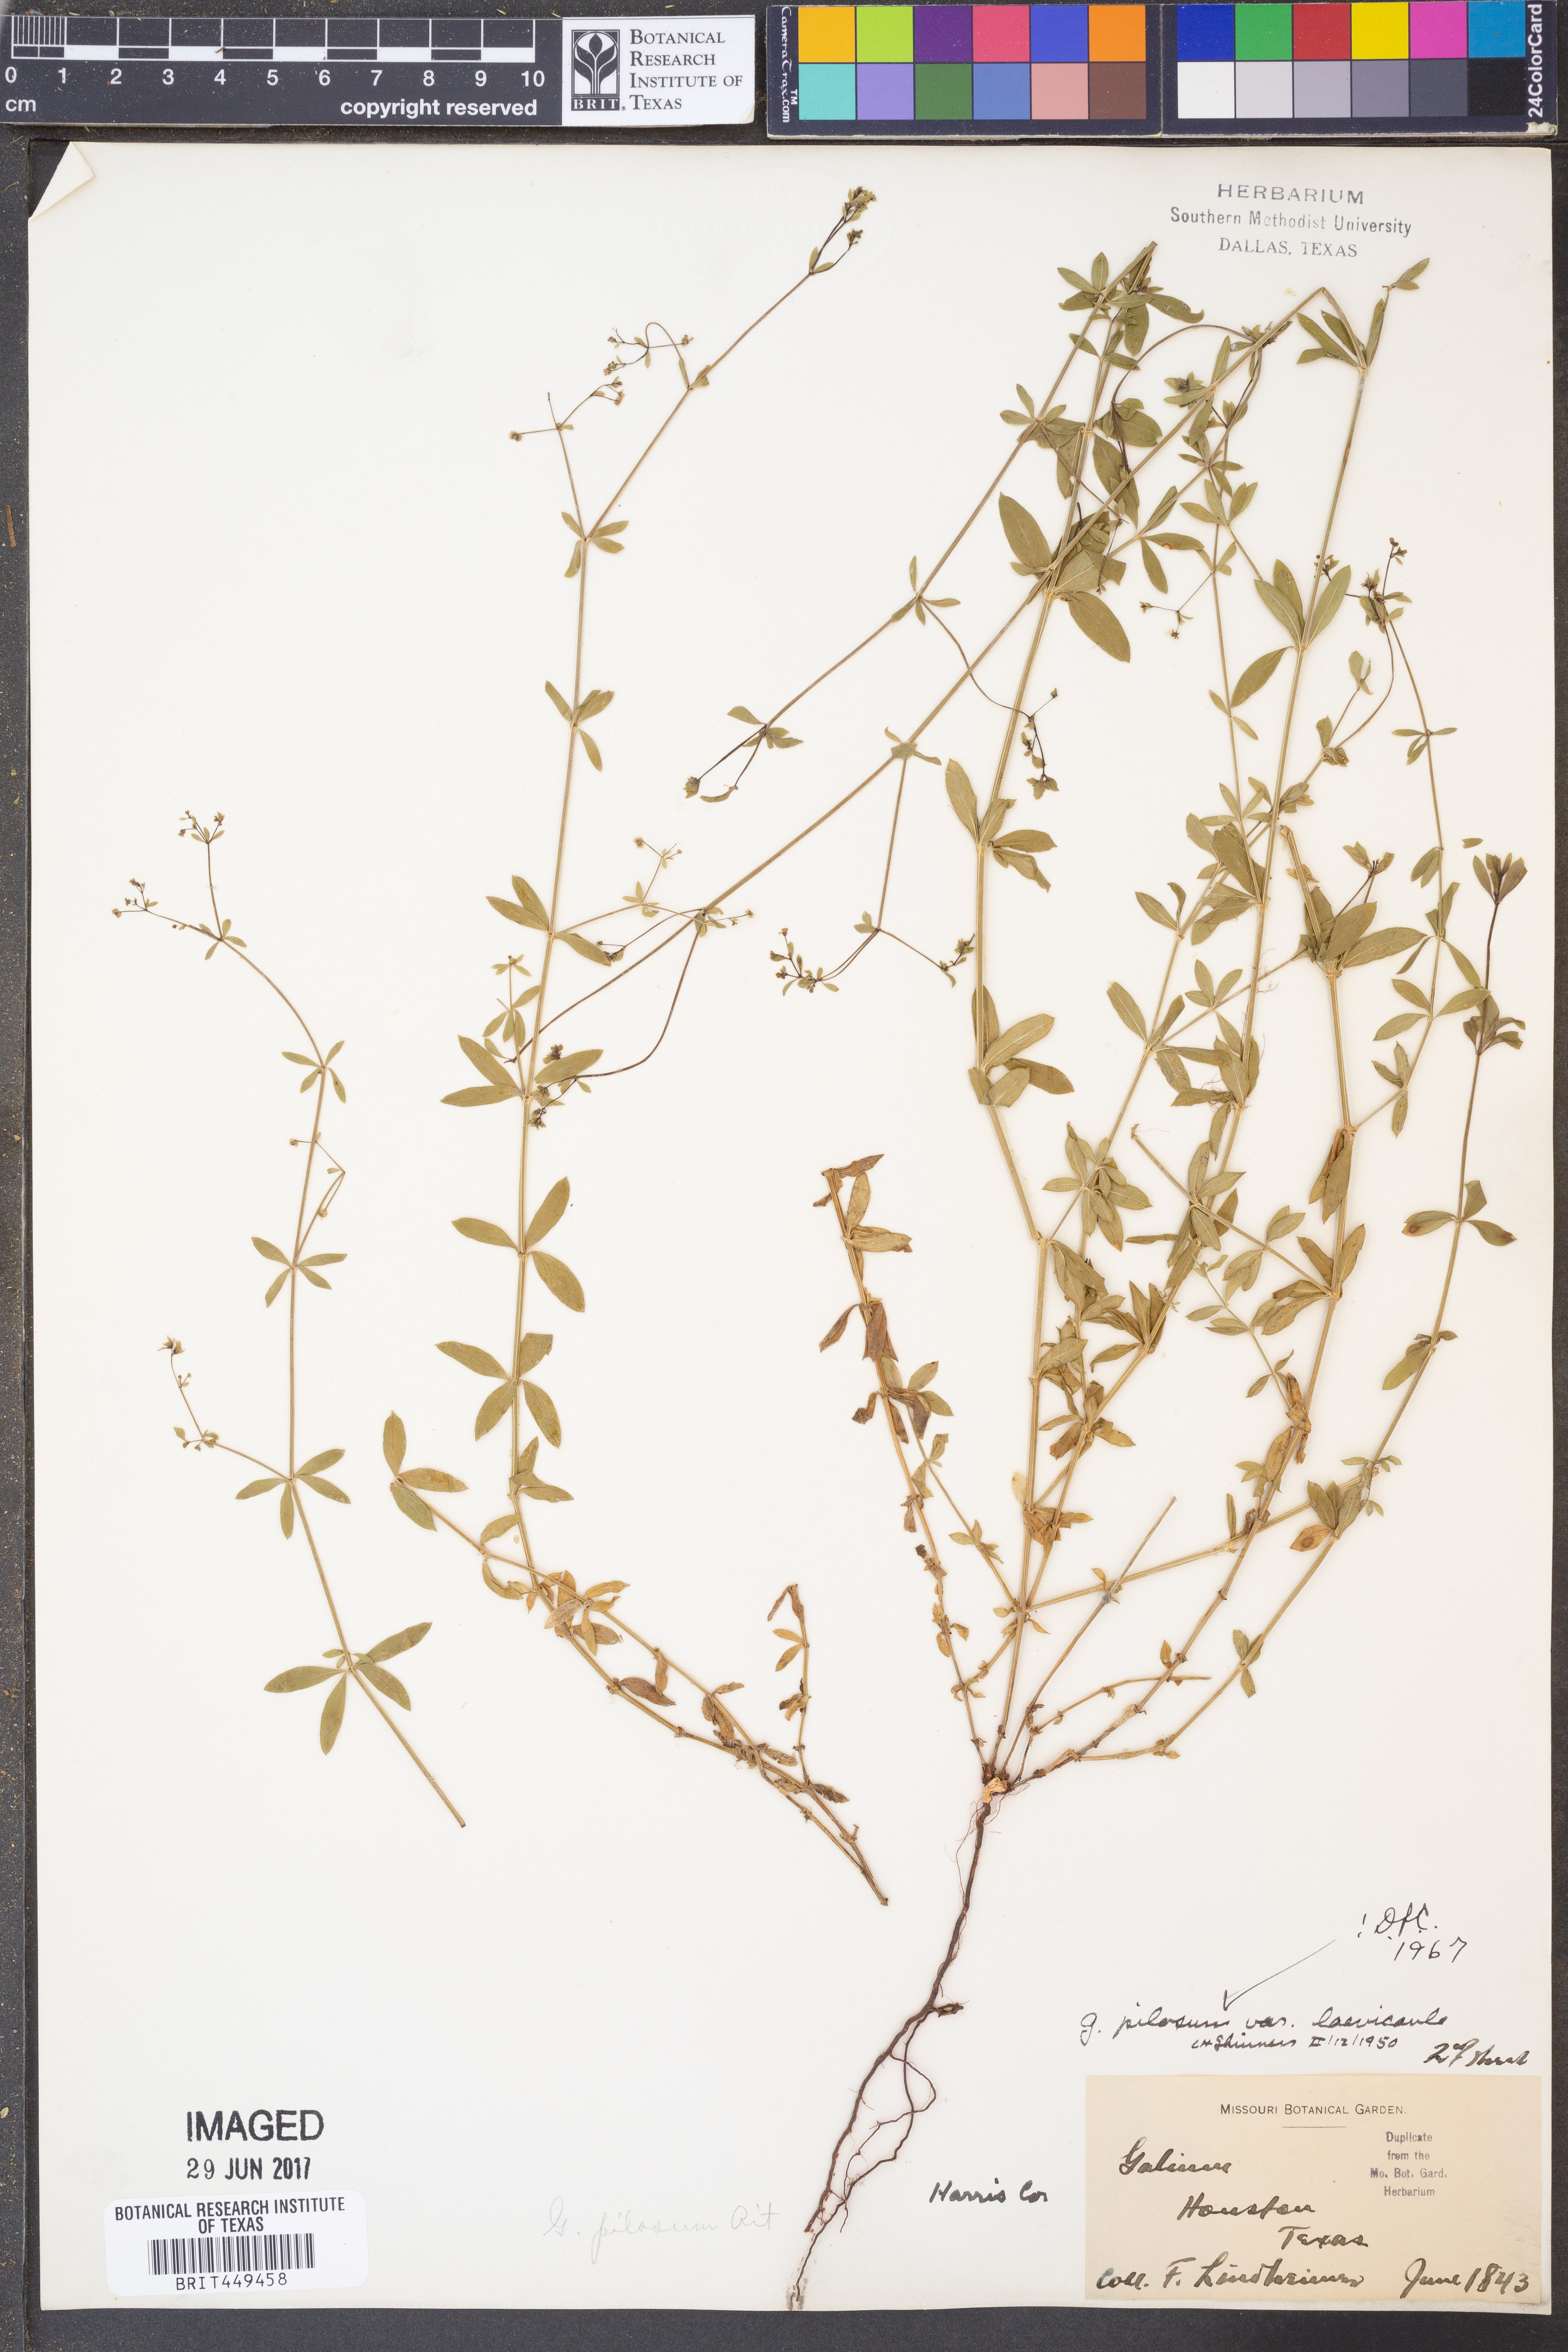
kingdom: Plantae
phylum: Tracheophyta
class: Magnoliopsida
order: Gentianales
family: Rubiaceae
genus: Galium
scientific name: Galium orizabense
